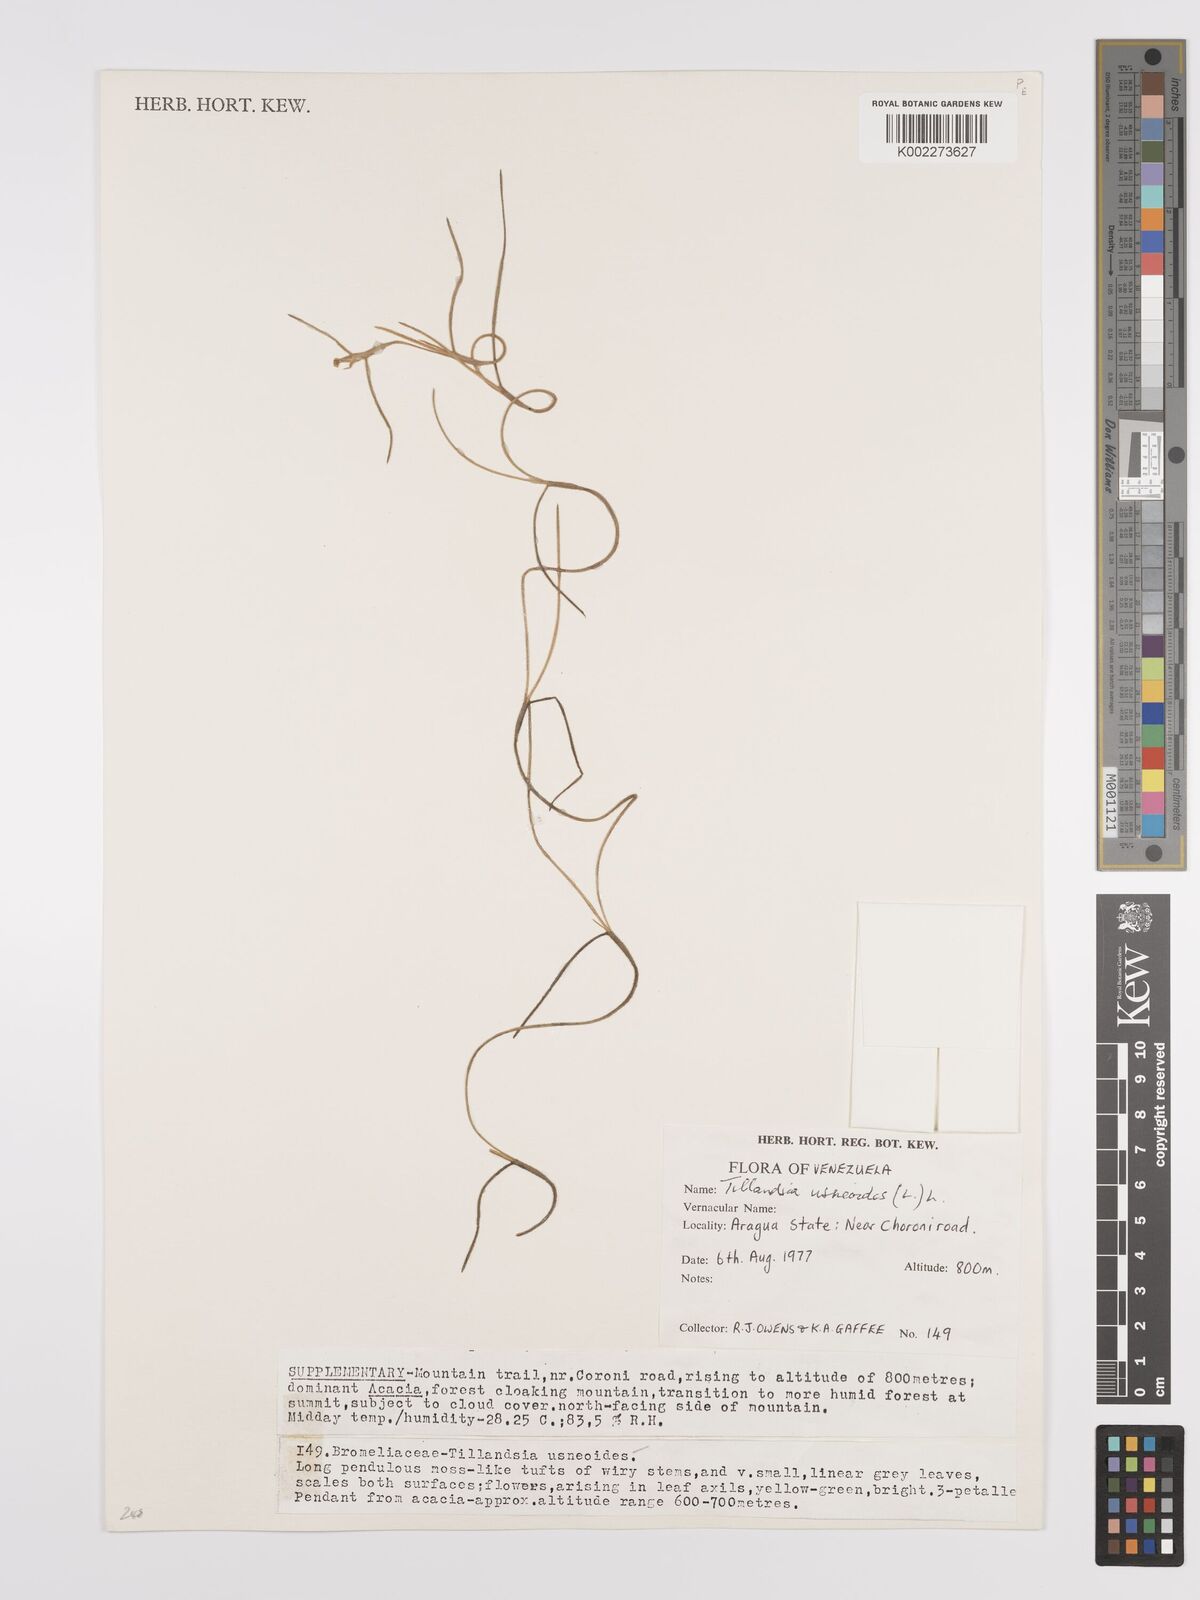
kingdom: Plantae
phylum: Tracheophyta
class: Liliopsida
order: Poales
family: Bromeliaceae
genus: Tillandsia
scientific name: Tillandsia usneoides
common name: Spanish moss
